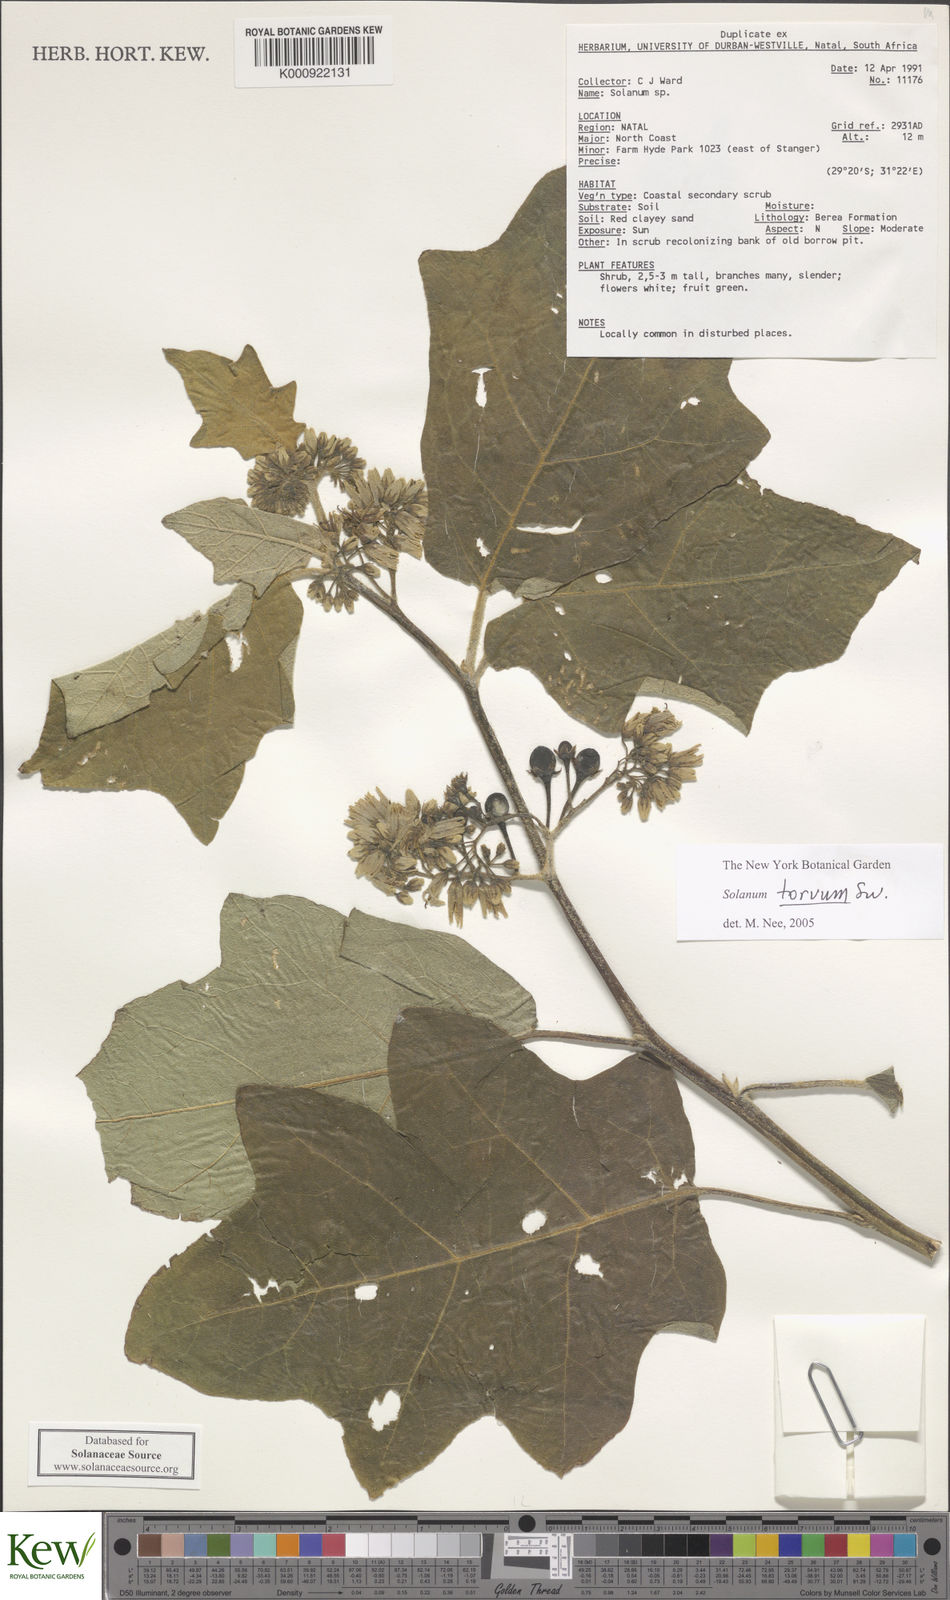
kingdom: Plantae
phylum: Tracheophyta
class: Magnoliopsida
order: Solanales
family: Solanaceae
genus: Solanum
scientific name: Solanum torvum
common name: Turkey berry
